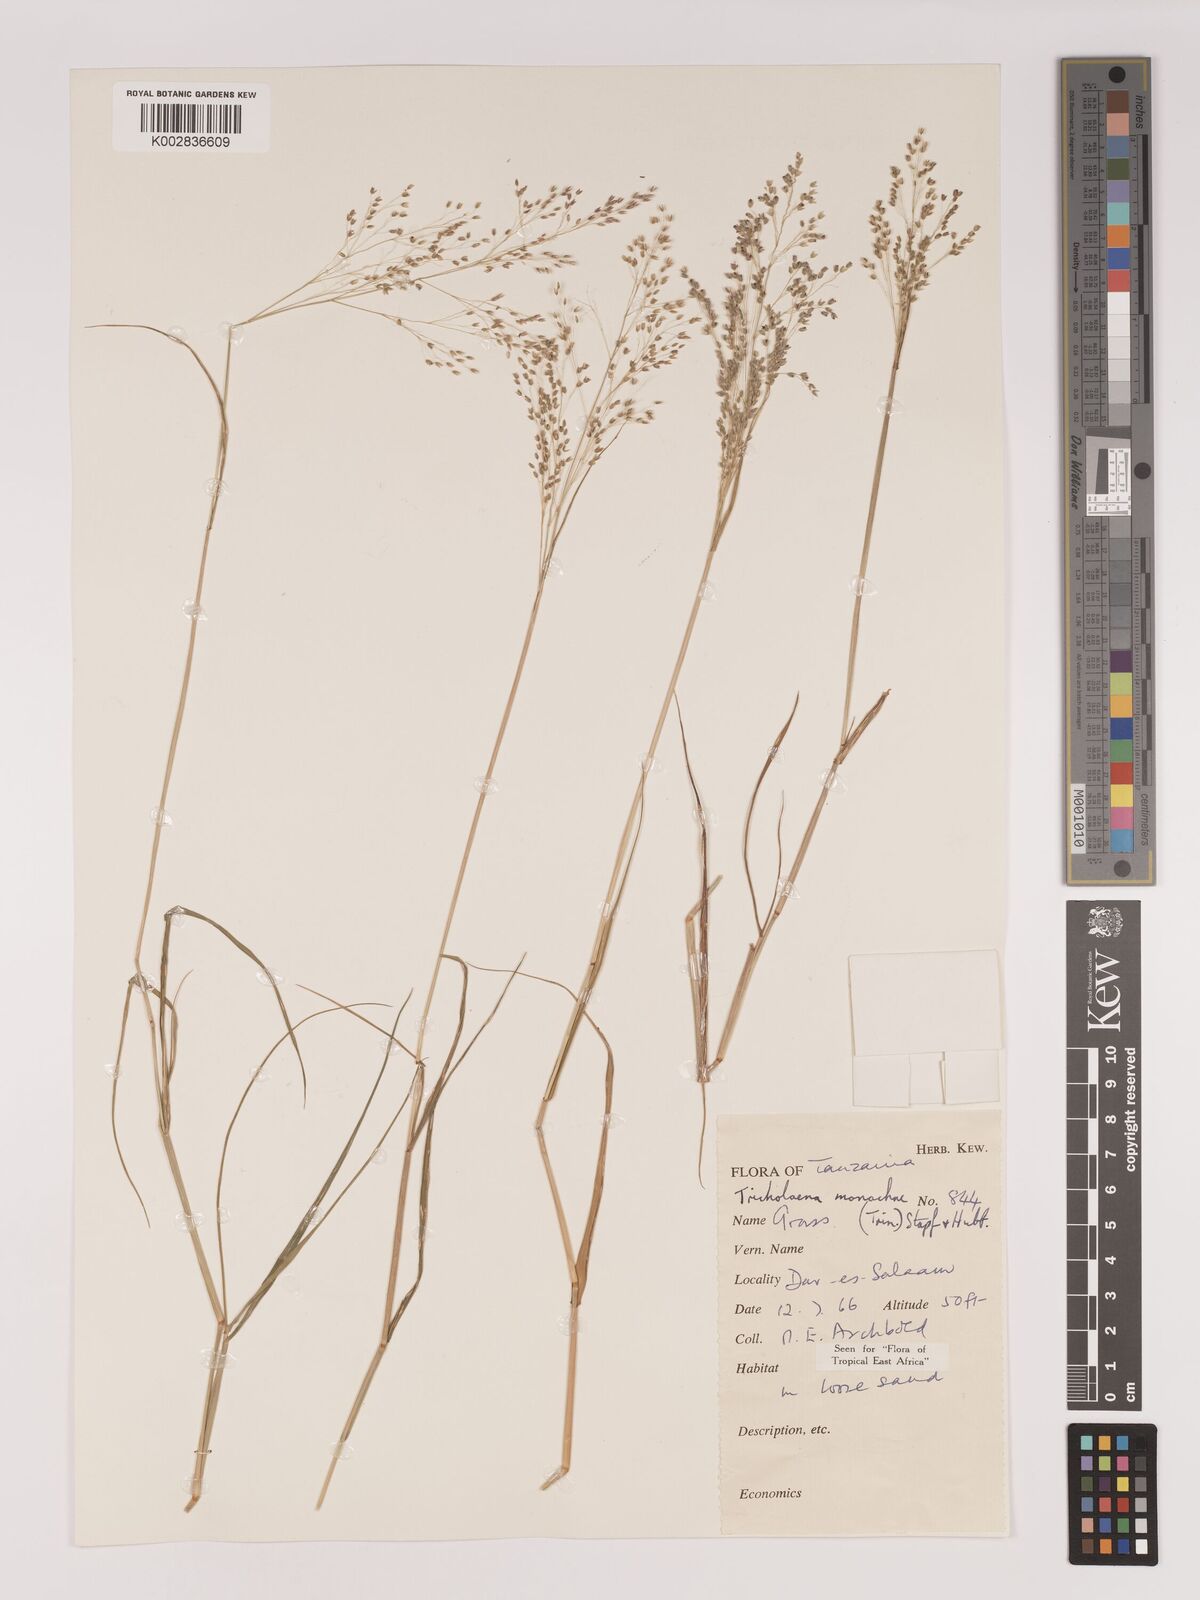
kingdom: Plantae
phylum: Tracheophyta
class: Liliopsida
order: Poales
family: Poaceae
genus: Tricholaena
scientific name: Tricholaena monachne
